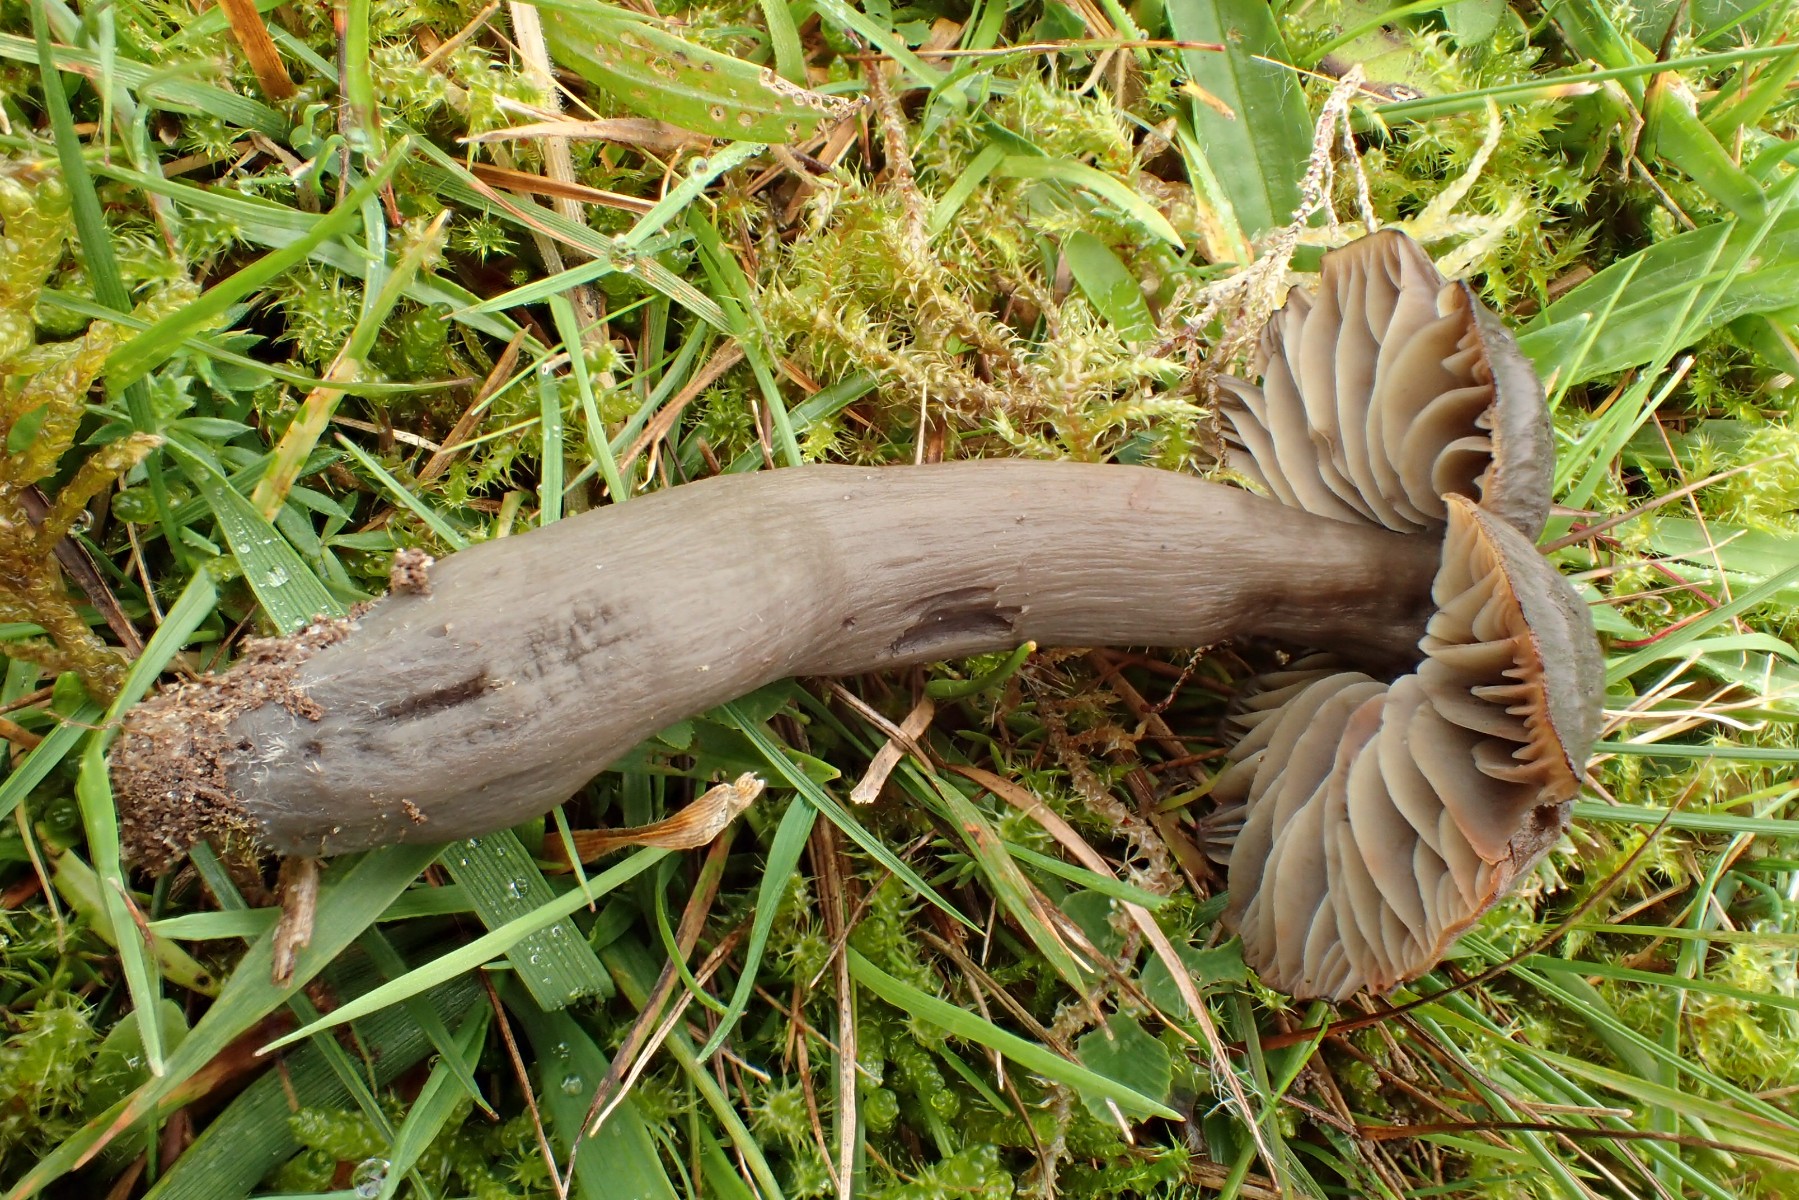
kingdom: Fungi
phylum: Basidiomycota
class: Agaricomycetes
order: Agaricales
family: Hygrophoraceae
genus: Neohygrocybe
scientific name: Neohygrocybe ovina
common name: rødmende vokshat
